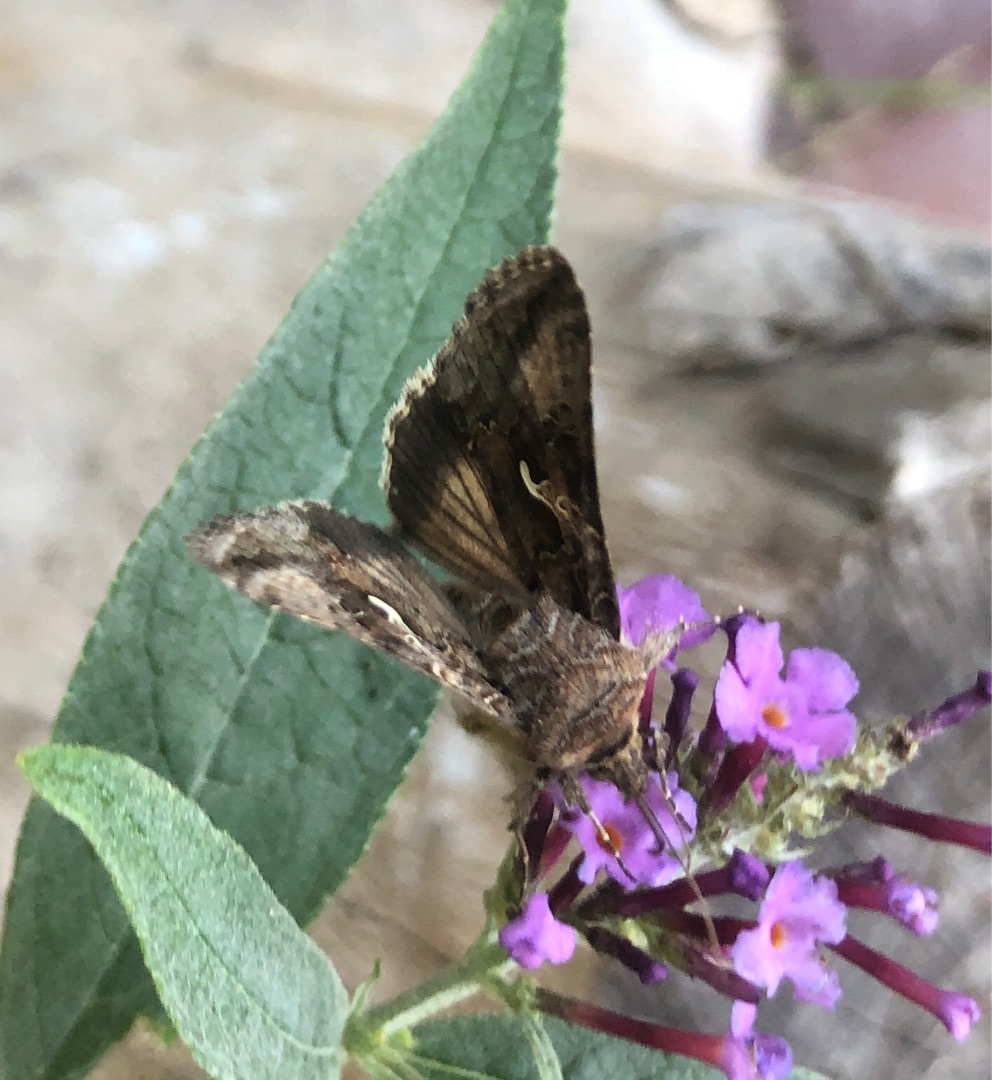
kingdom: Animalia
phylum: Arthropoda
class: Insecta
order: Lepidoptera
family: Noctuidae
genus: Autographa
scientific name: Autographa gamma
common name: Gammaugle
